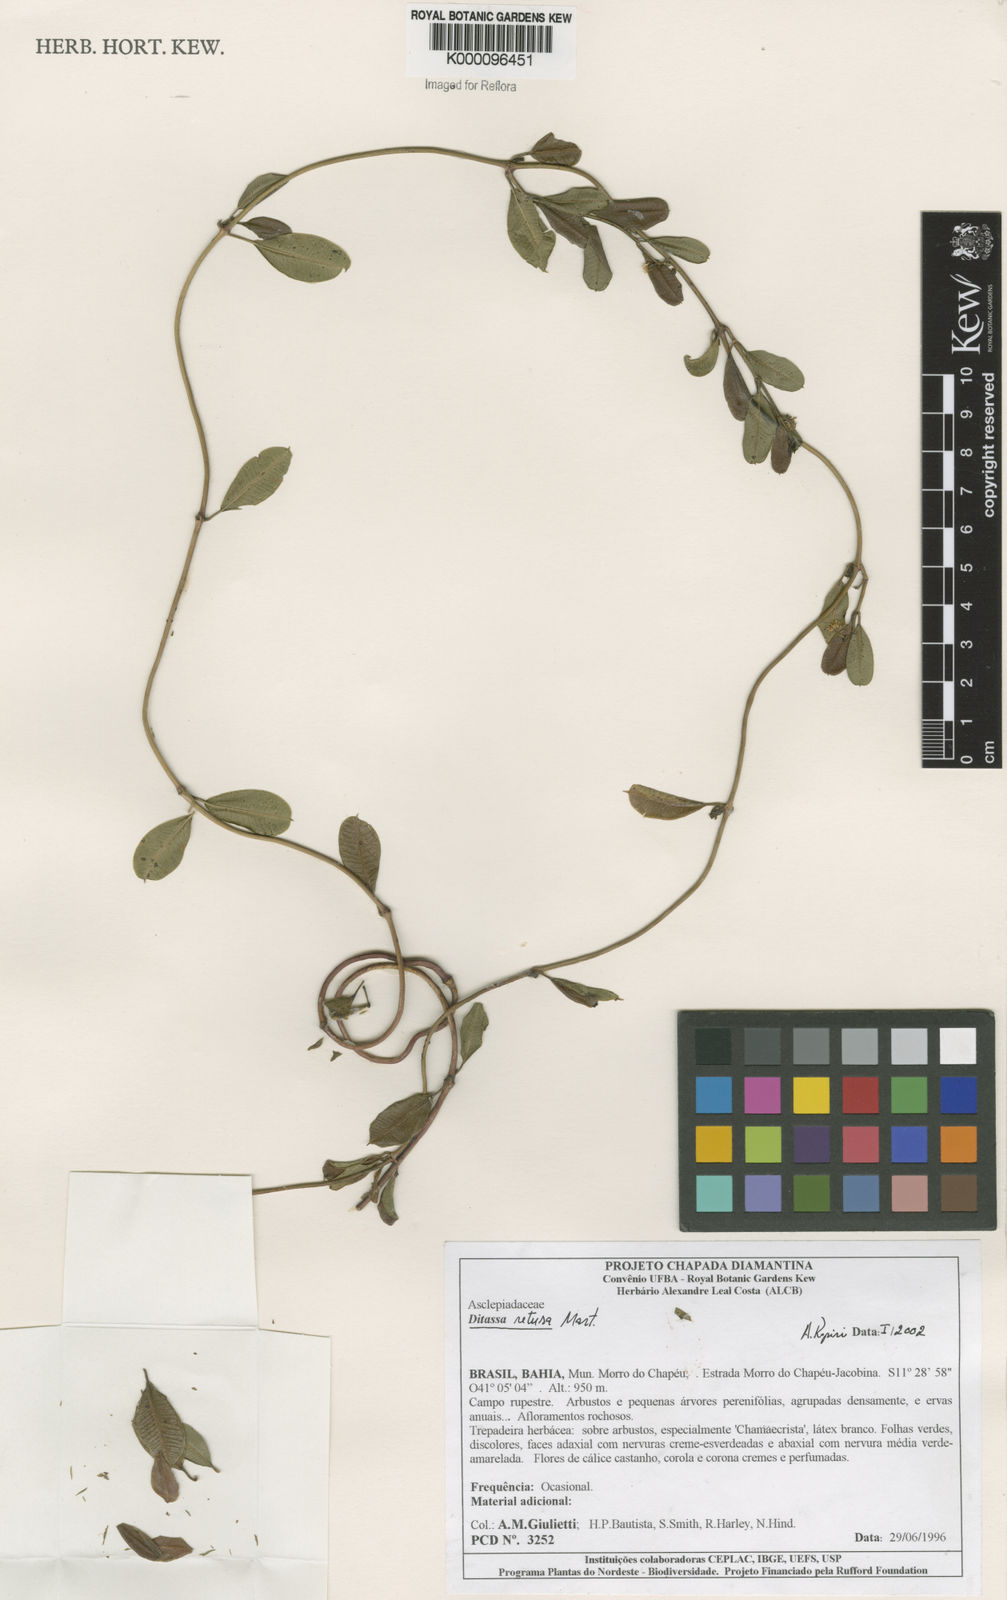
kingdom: Plantae
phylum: Tracheophyta
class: Magnoliopsida
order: Gentianales
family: Apocynaceae
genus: Ditassa
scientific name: Ditassa retusa
